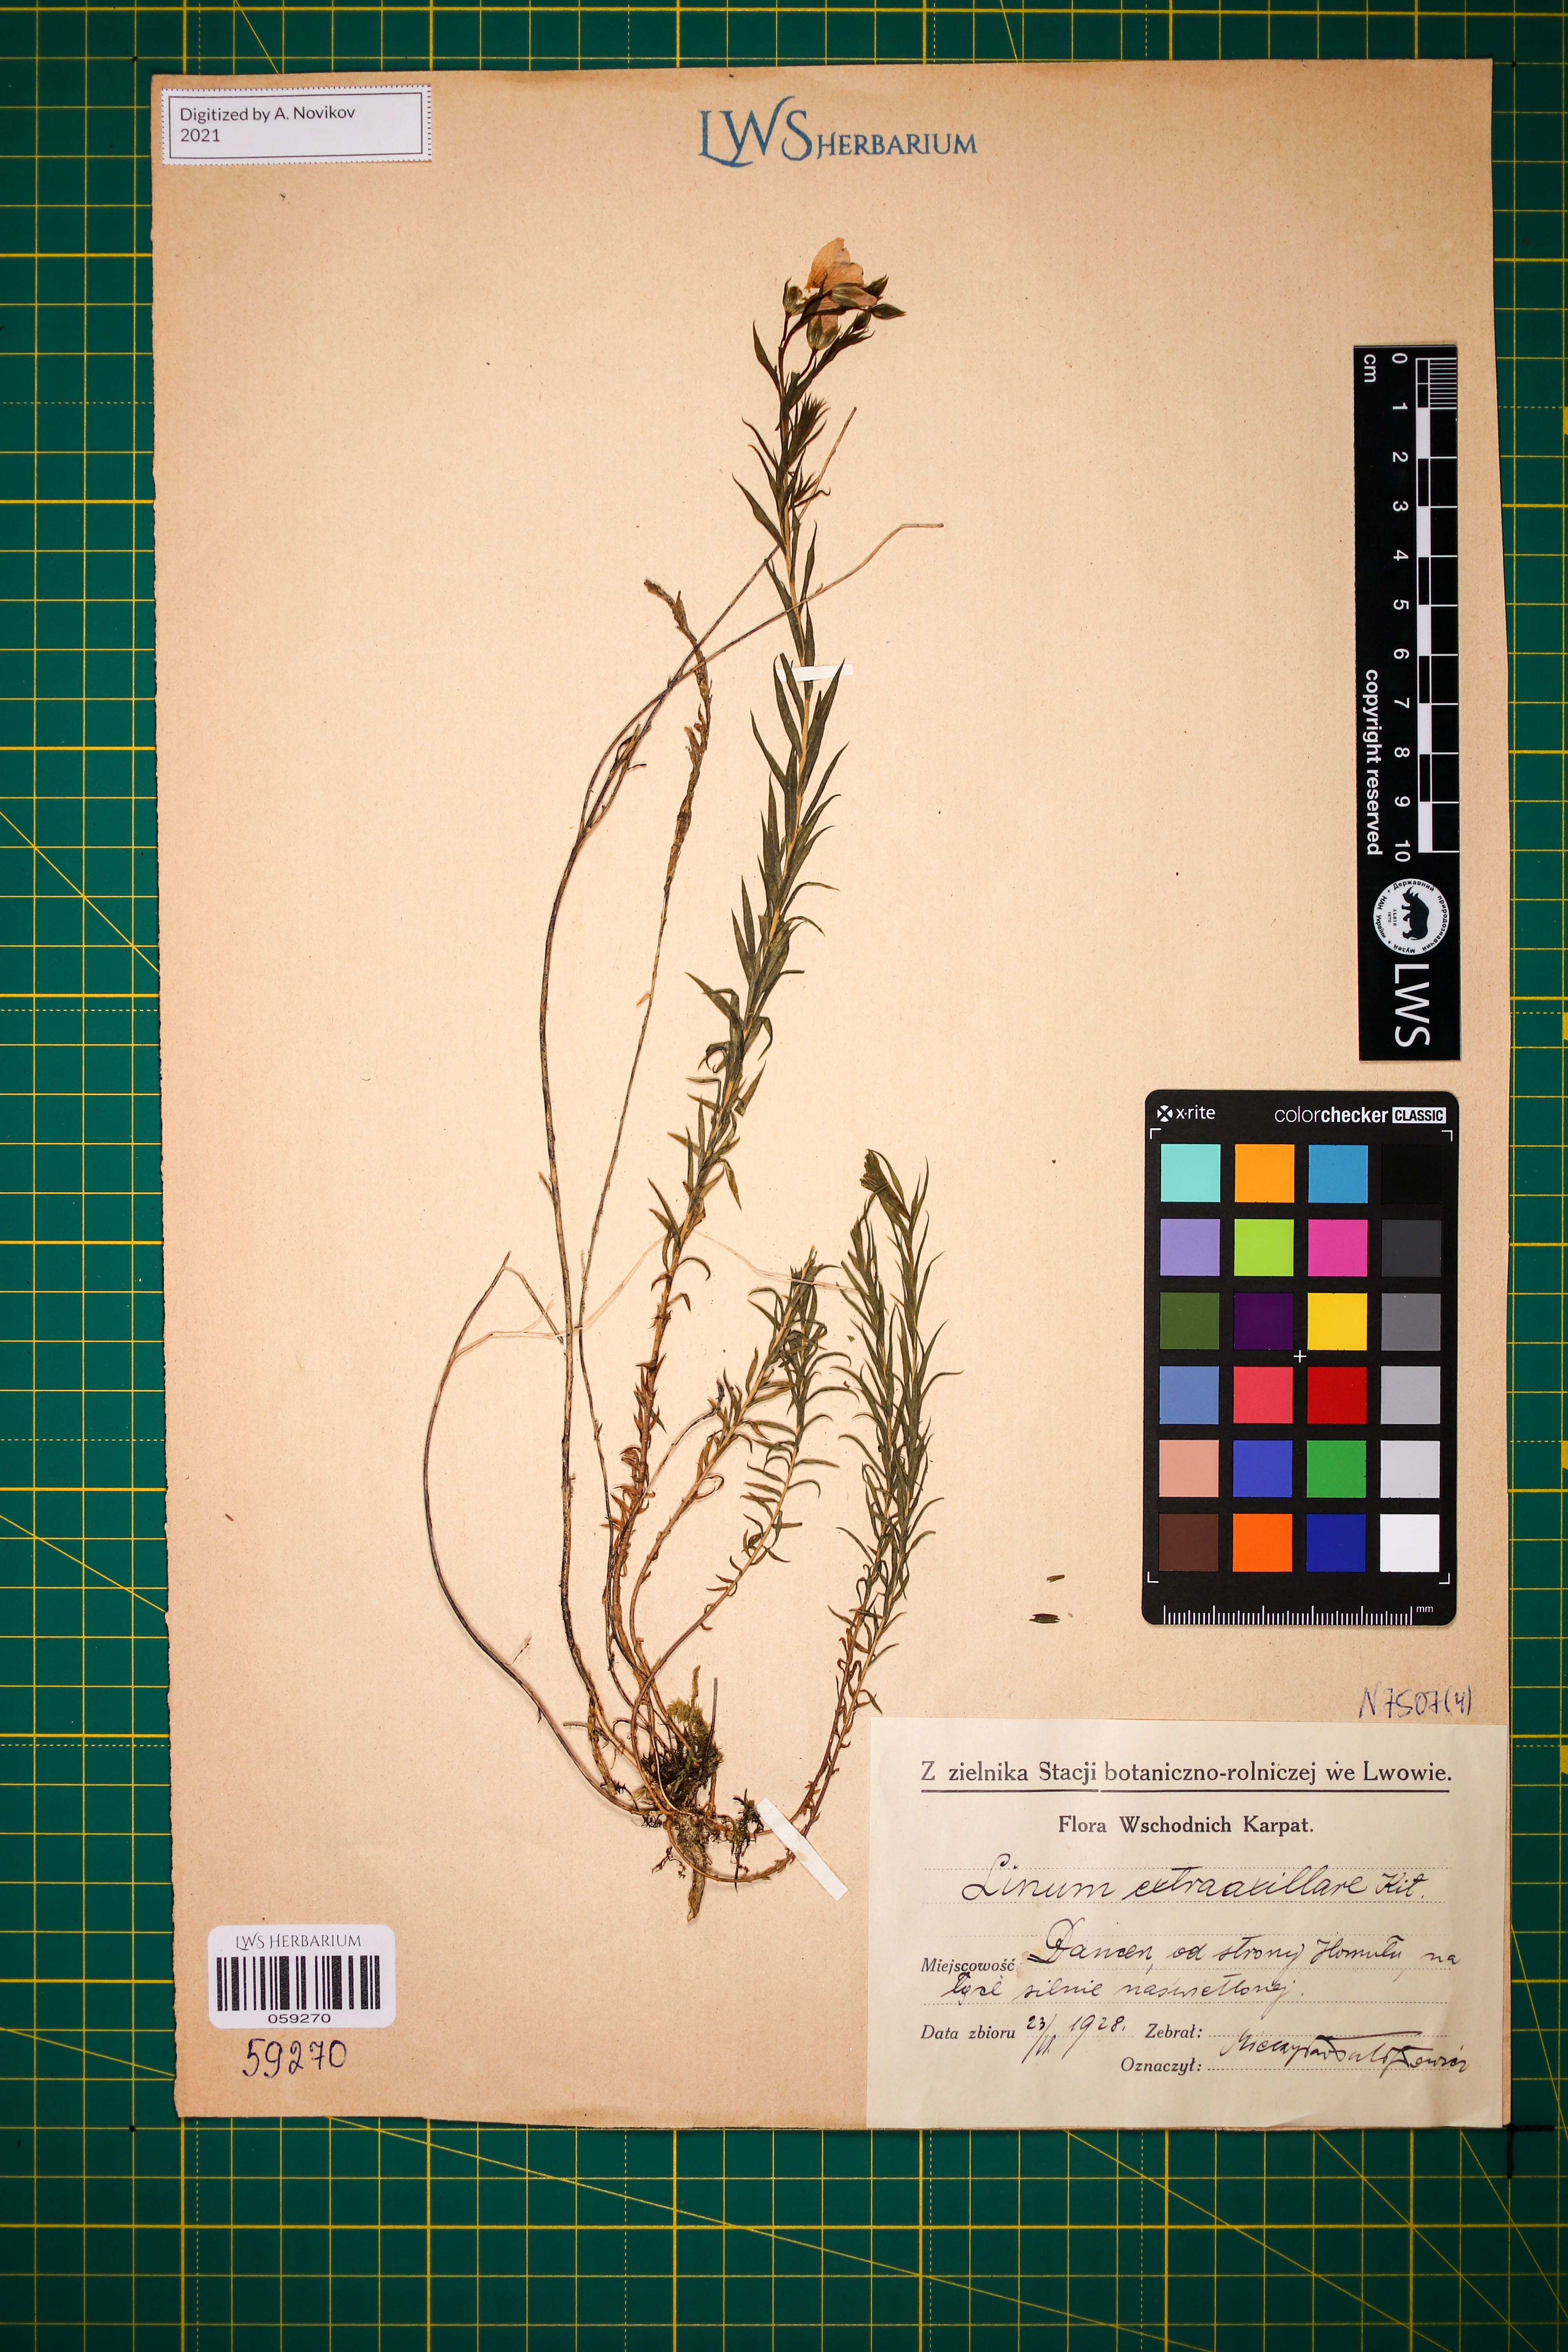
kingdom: Plantae
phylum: Tracheophyta
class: Magnoliopsida
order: Malpighiales
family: Linaceae
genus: Linum
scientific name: Linum perenne
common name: Blue flax
